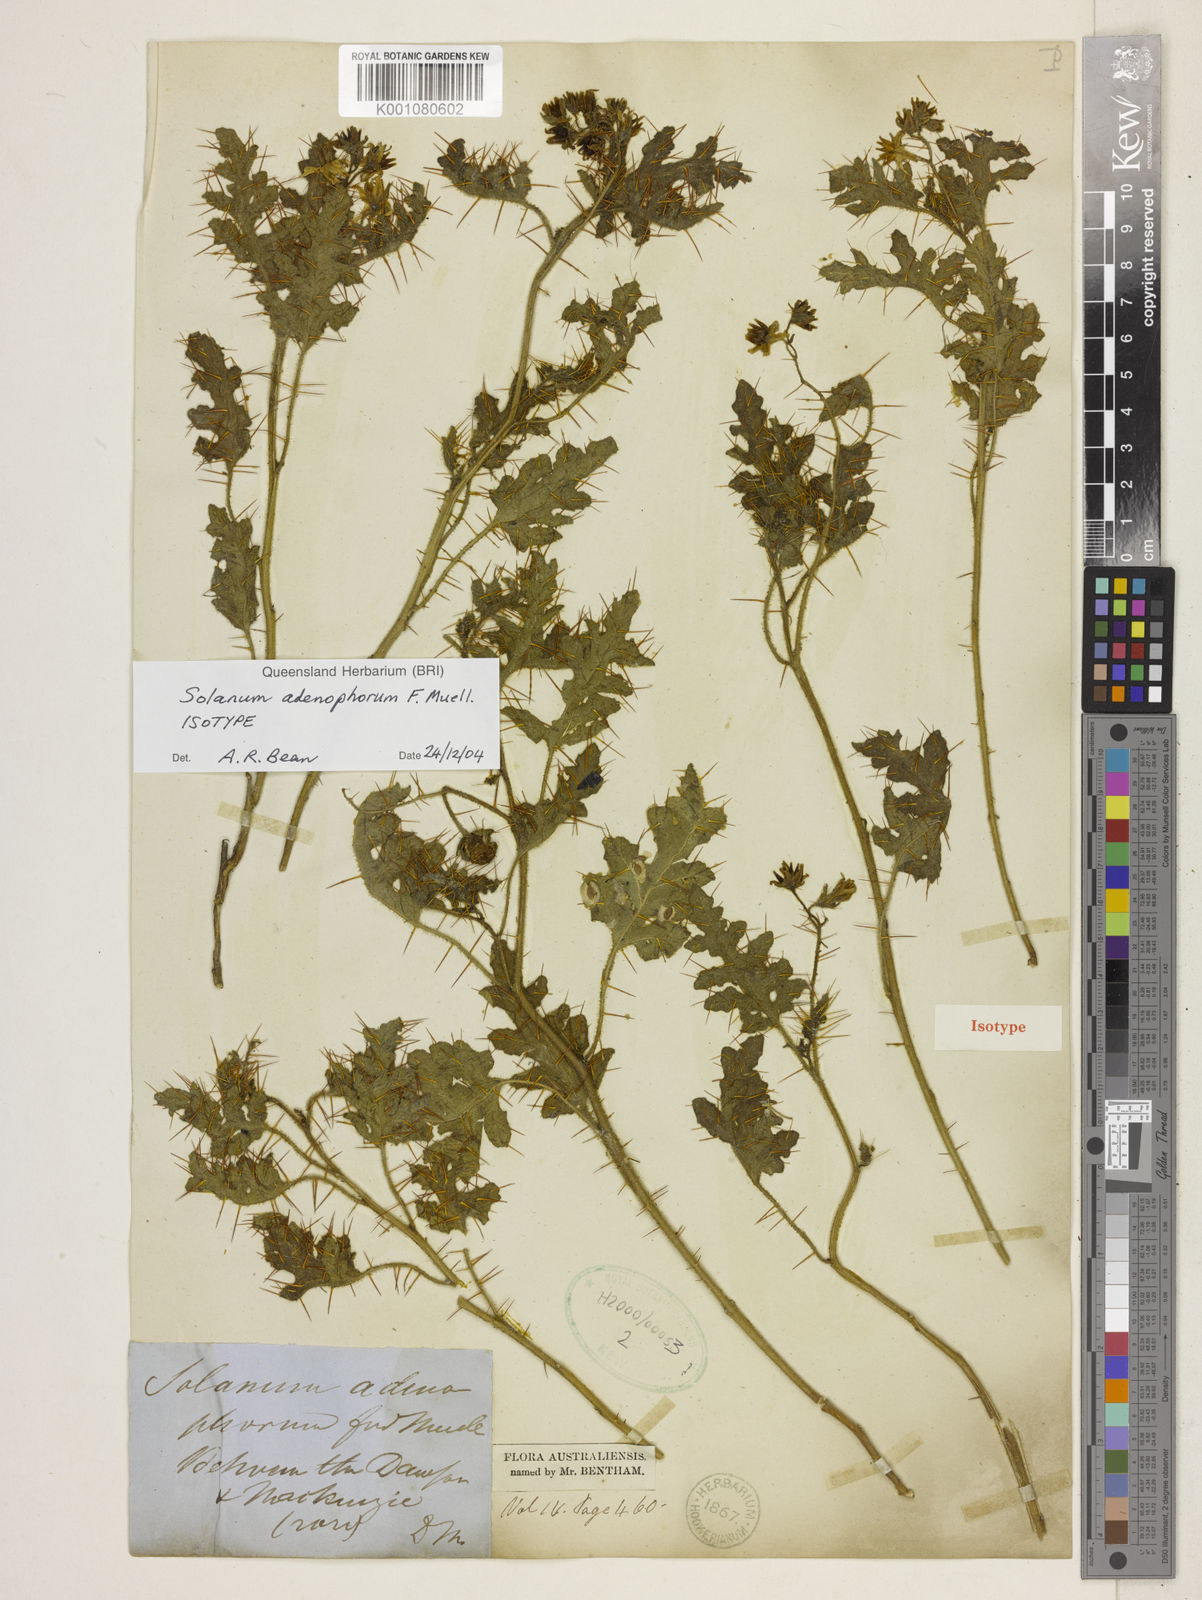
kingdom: Plantae
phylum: Tracheophyta
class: Magnoliopsida
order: Solanales
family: Solanaceae
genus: Solanum
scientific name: Solanum adenophorum
